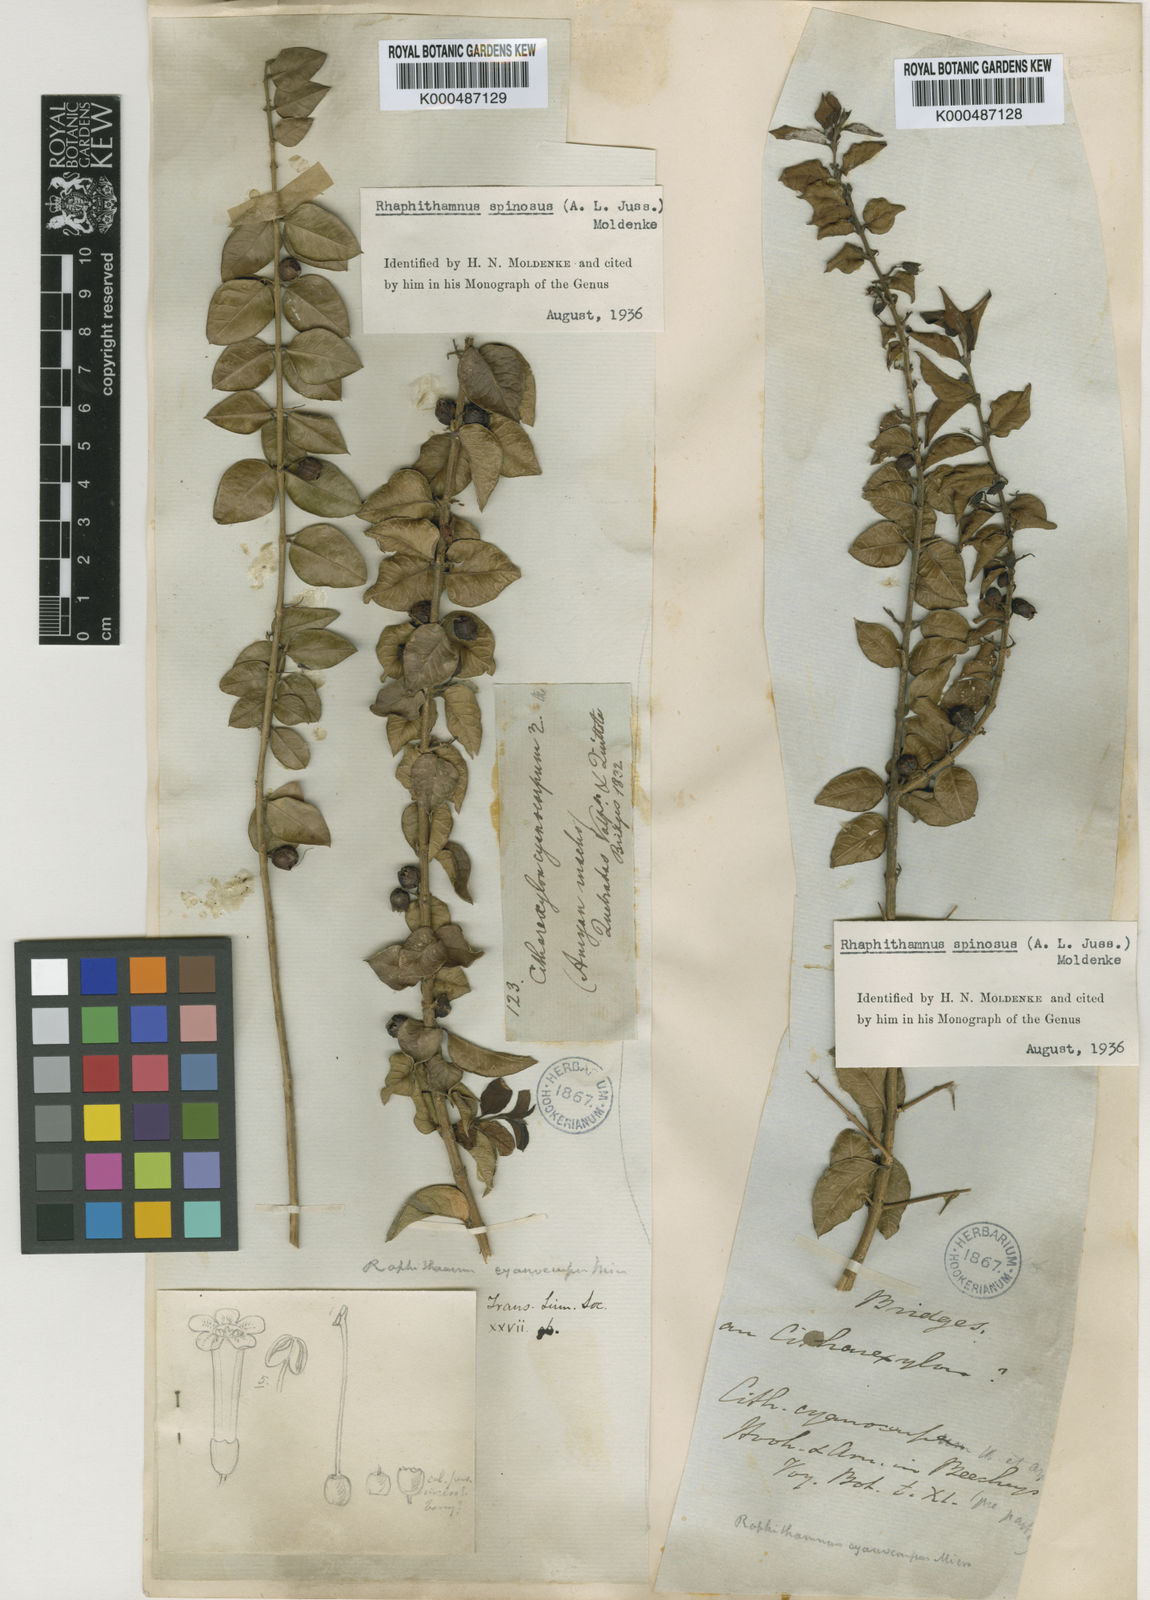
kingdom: Plantae
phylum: Tracheophyta
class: Magnoliopsida
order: Lamiales
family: Verbenaceae
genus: Rhaphithamnus
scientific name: Rhaphithamnus spinosus
